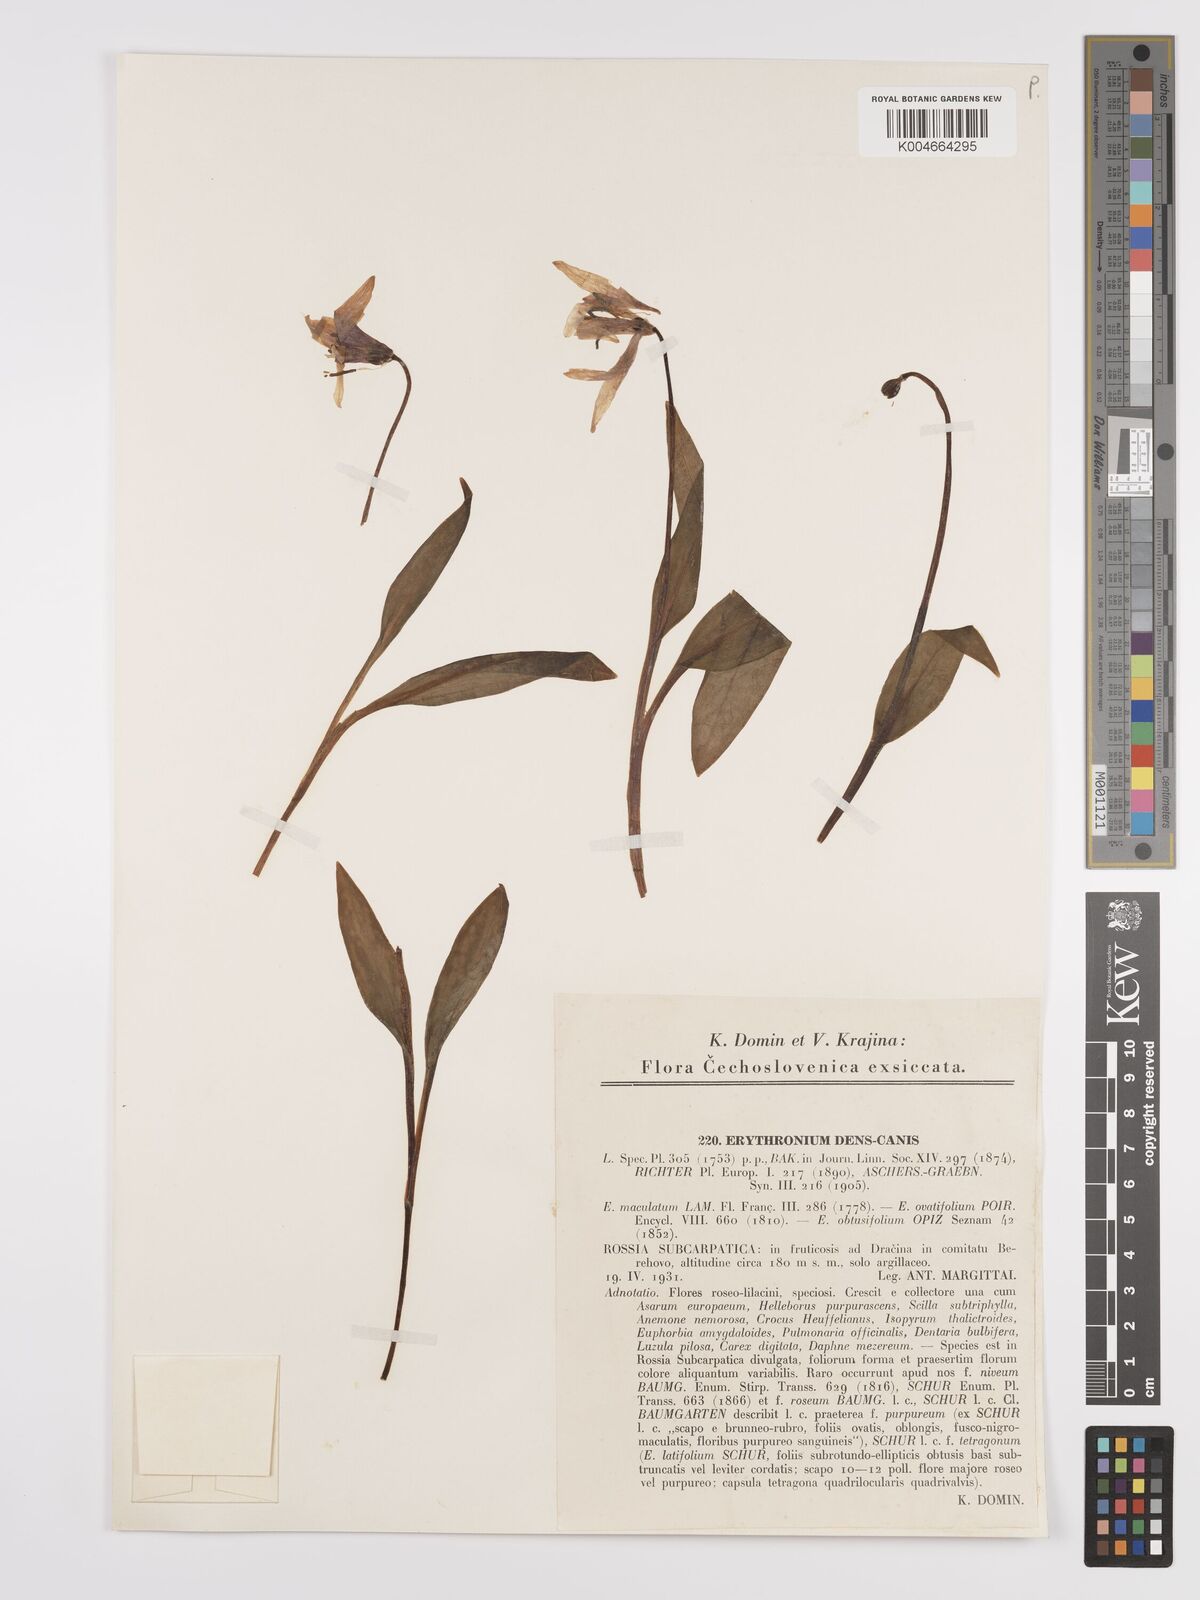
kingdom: Plantae
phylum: Tracheophyta
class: Liliopsida
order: Liliales
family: Liliaceae
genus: Erythronium
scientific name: Erythronium dens-canis
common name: Dog's-tooth-violet
